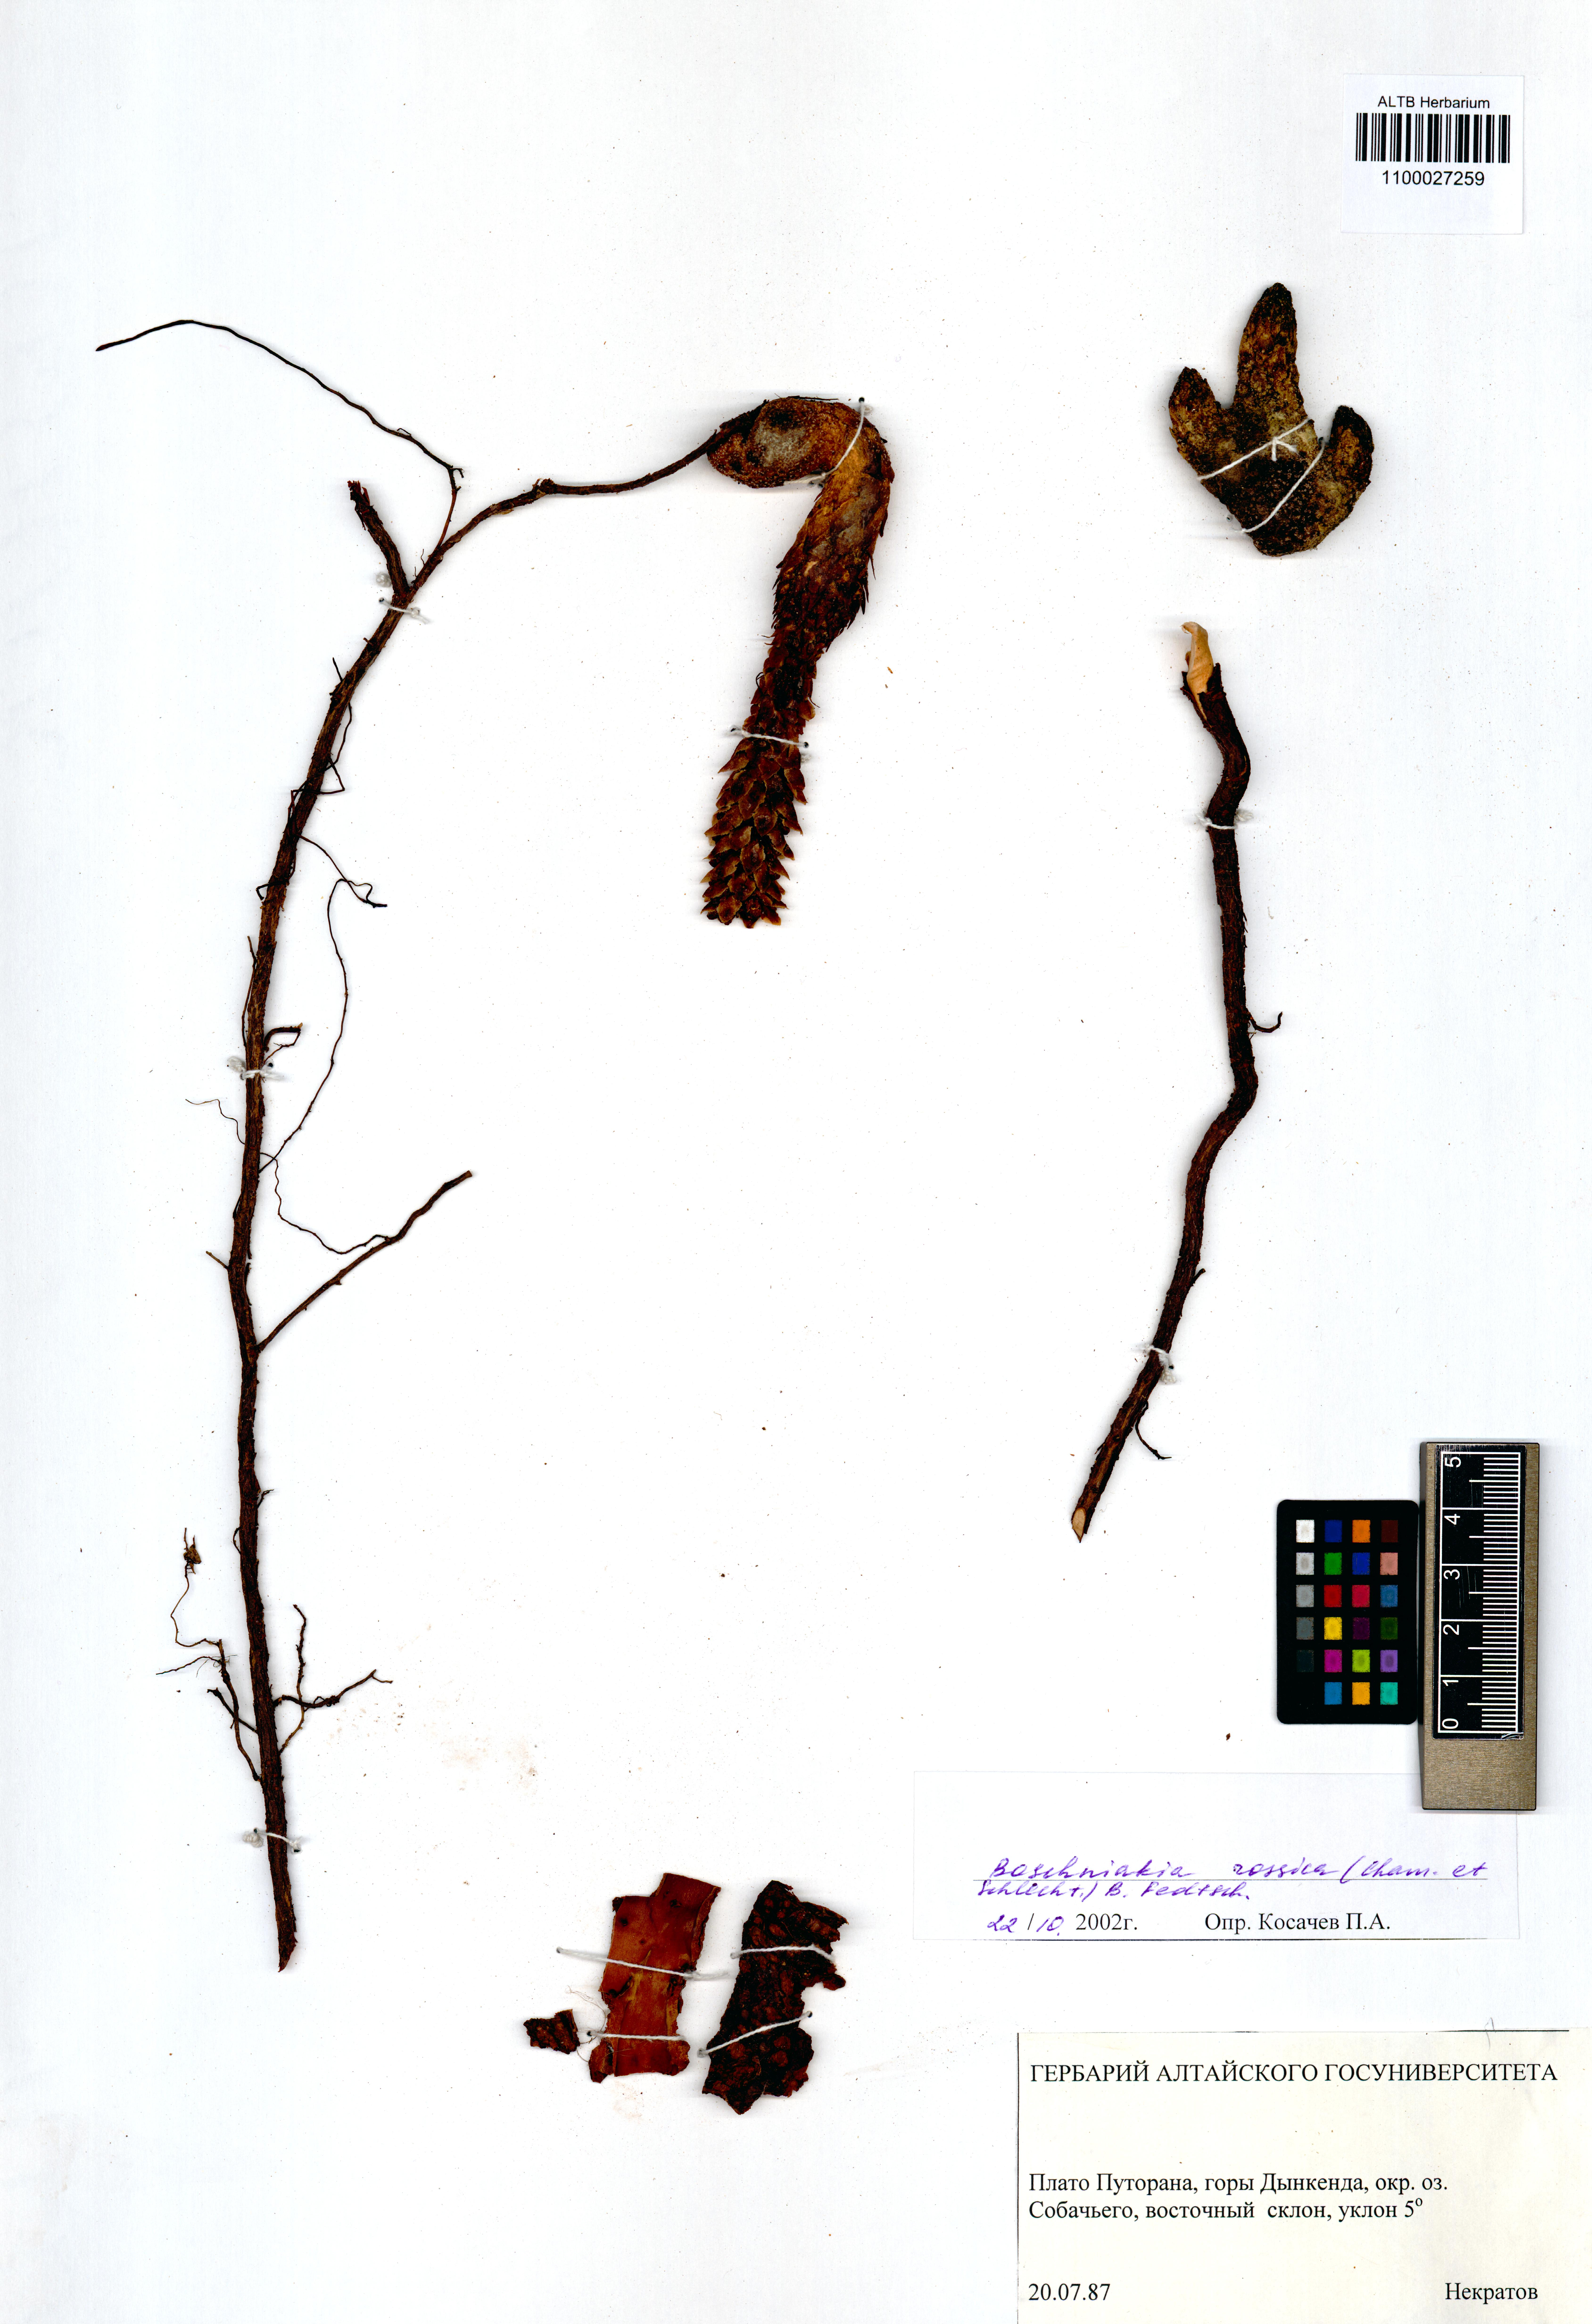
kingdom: Plantae
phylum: Tracheophyta
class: Magnoliopsida
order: Lamiales
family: Orobanchaceae
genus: Boschniakia
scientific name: Boschniakia rossica
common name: Poque
